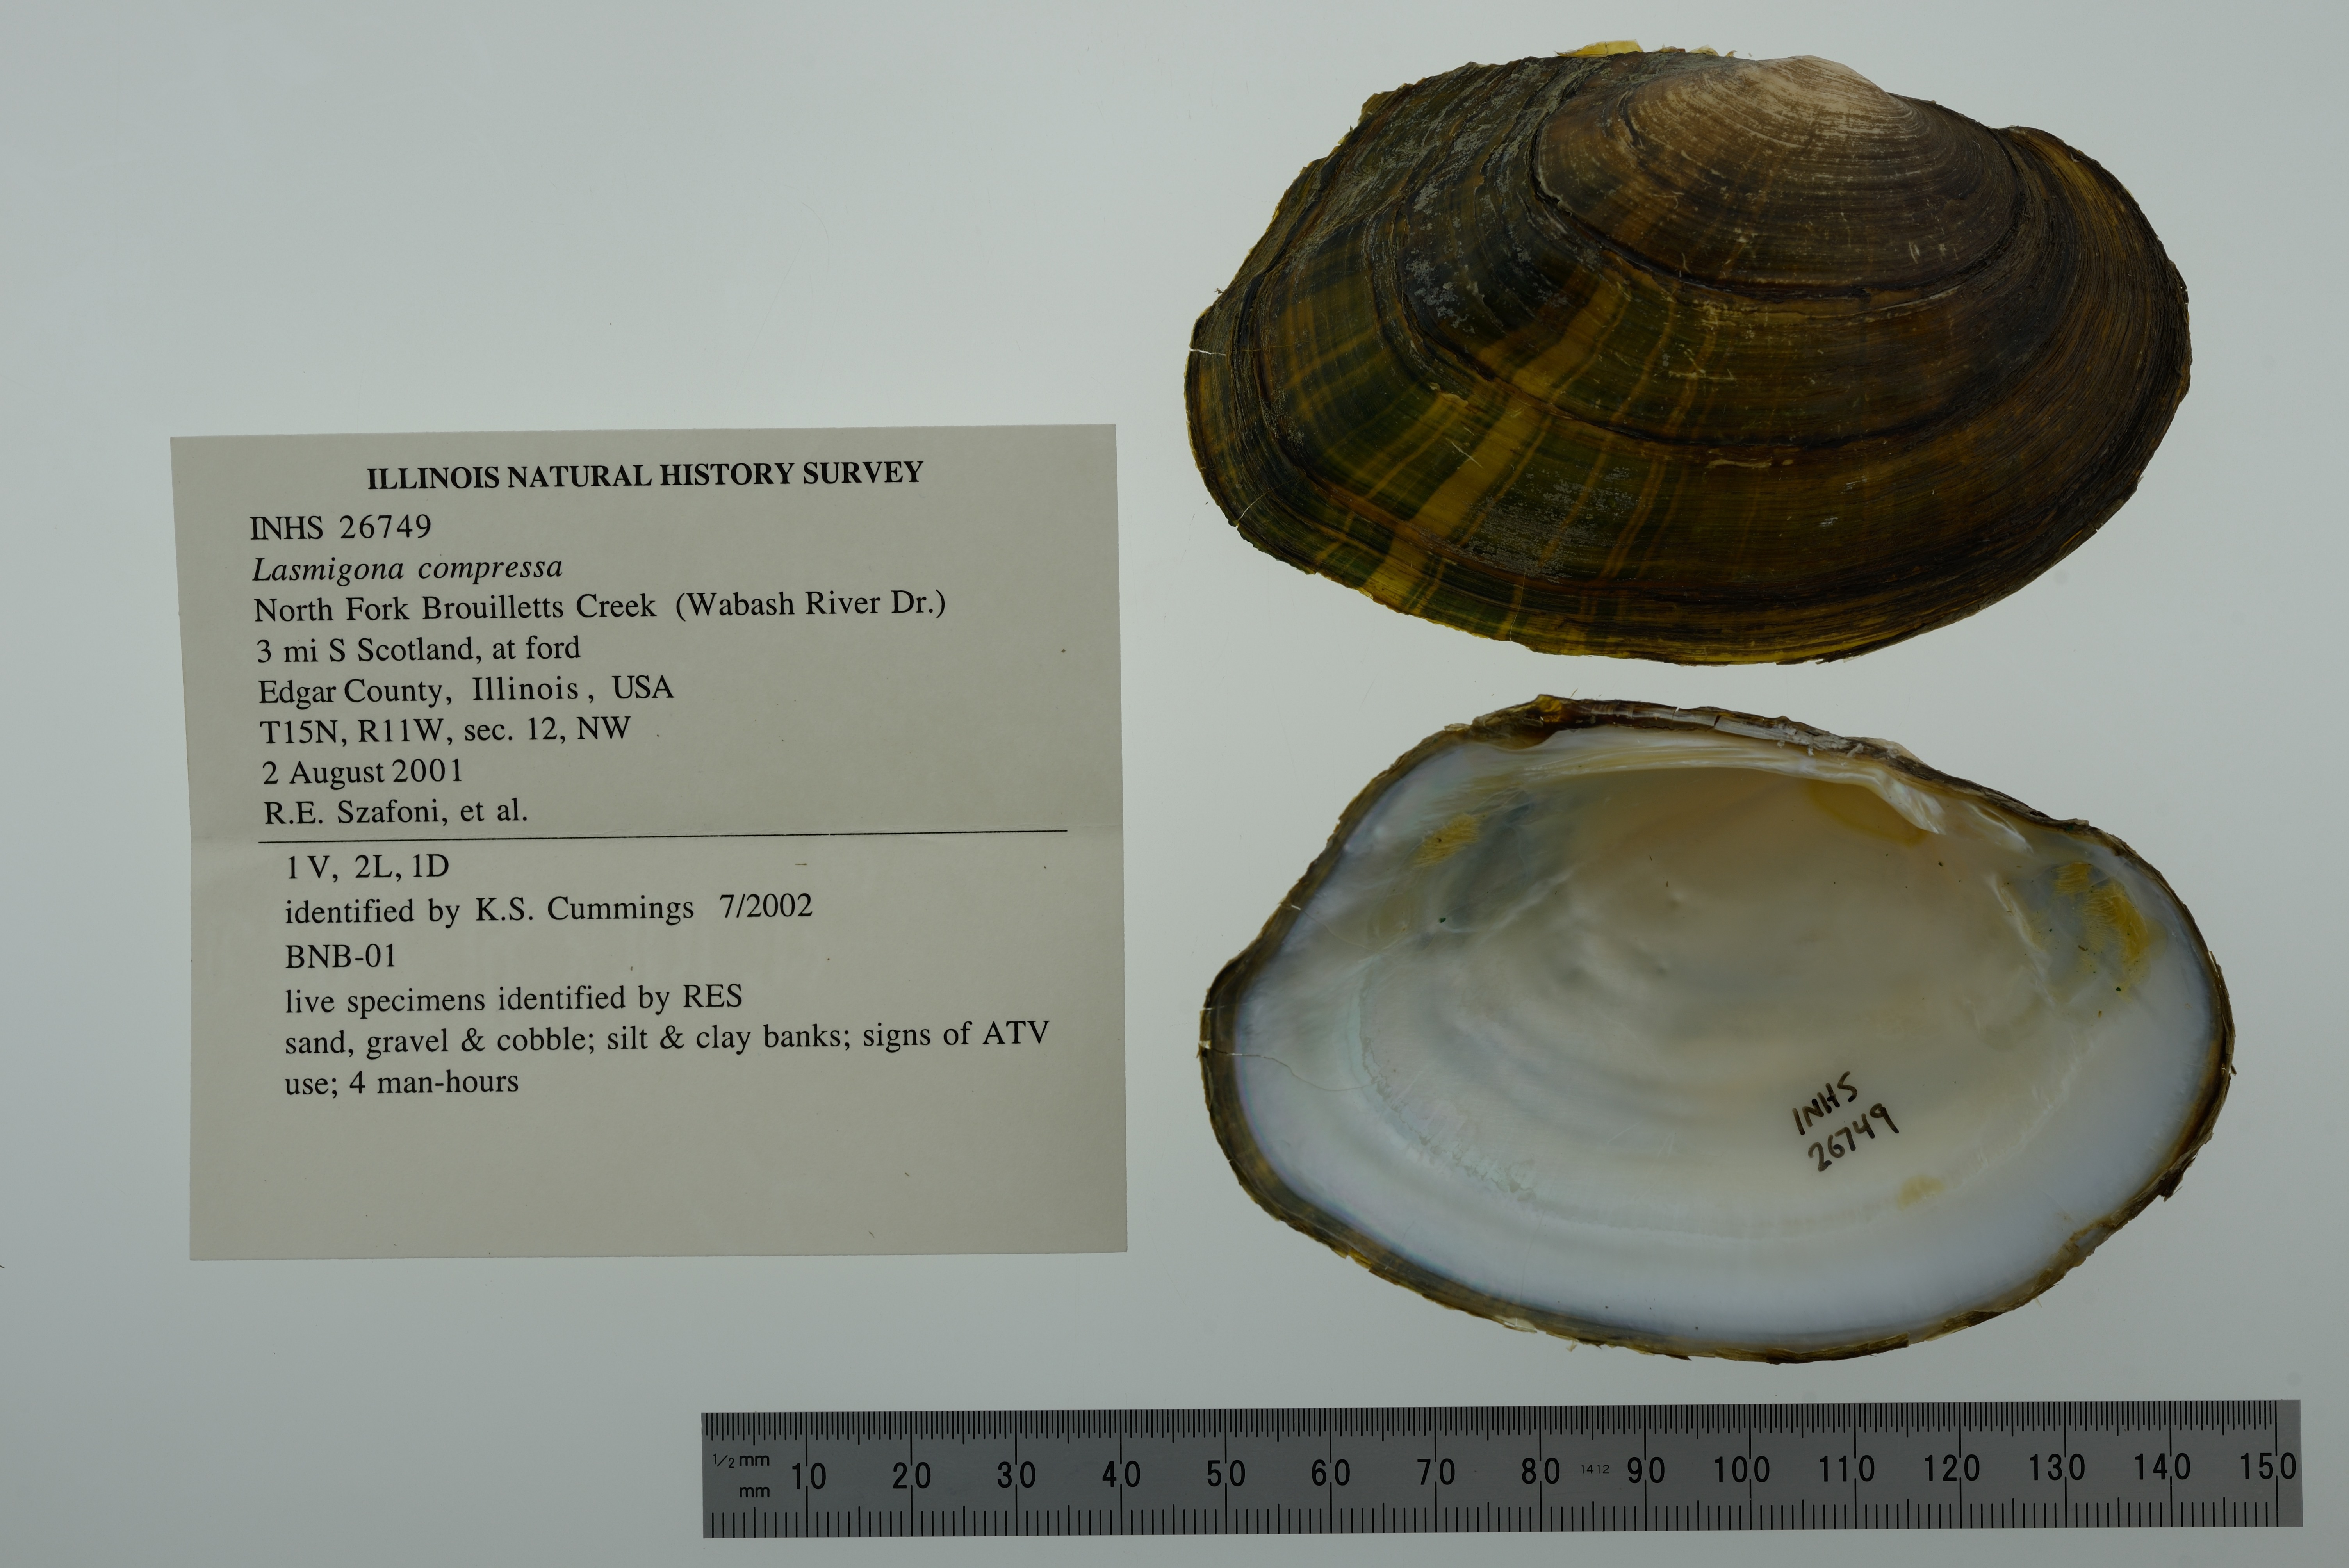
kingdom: Animalia
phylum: Mollusca
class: Bivalvia
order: Unionida
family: Unionidae
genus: Lasmigona
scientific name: Lasmigona compressa
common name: Creek heelsplitter
